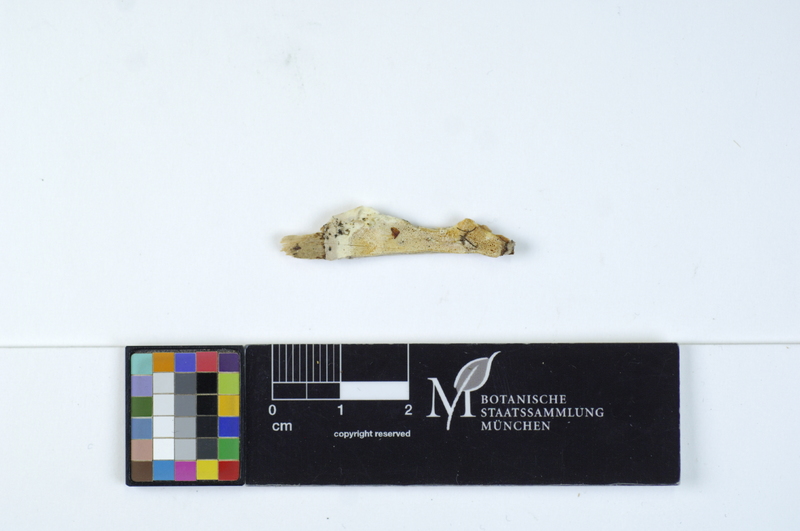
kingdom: Fungi
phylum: Basidiomycota
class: Agaricomycetes
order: Polyporales
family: Incrustoporiaceae
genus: Skeletocutis
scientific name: Skeletocutis kuehneri
